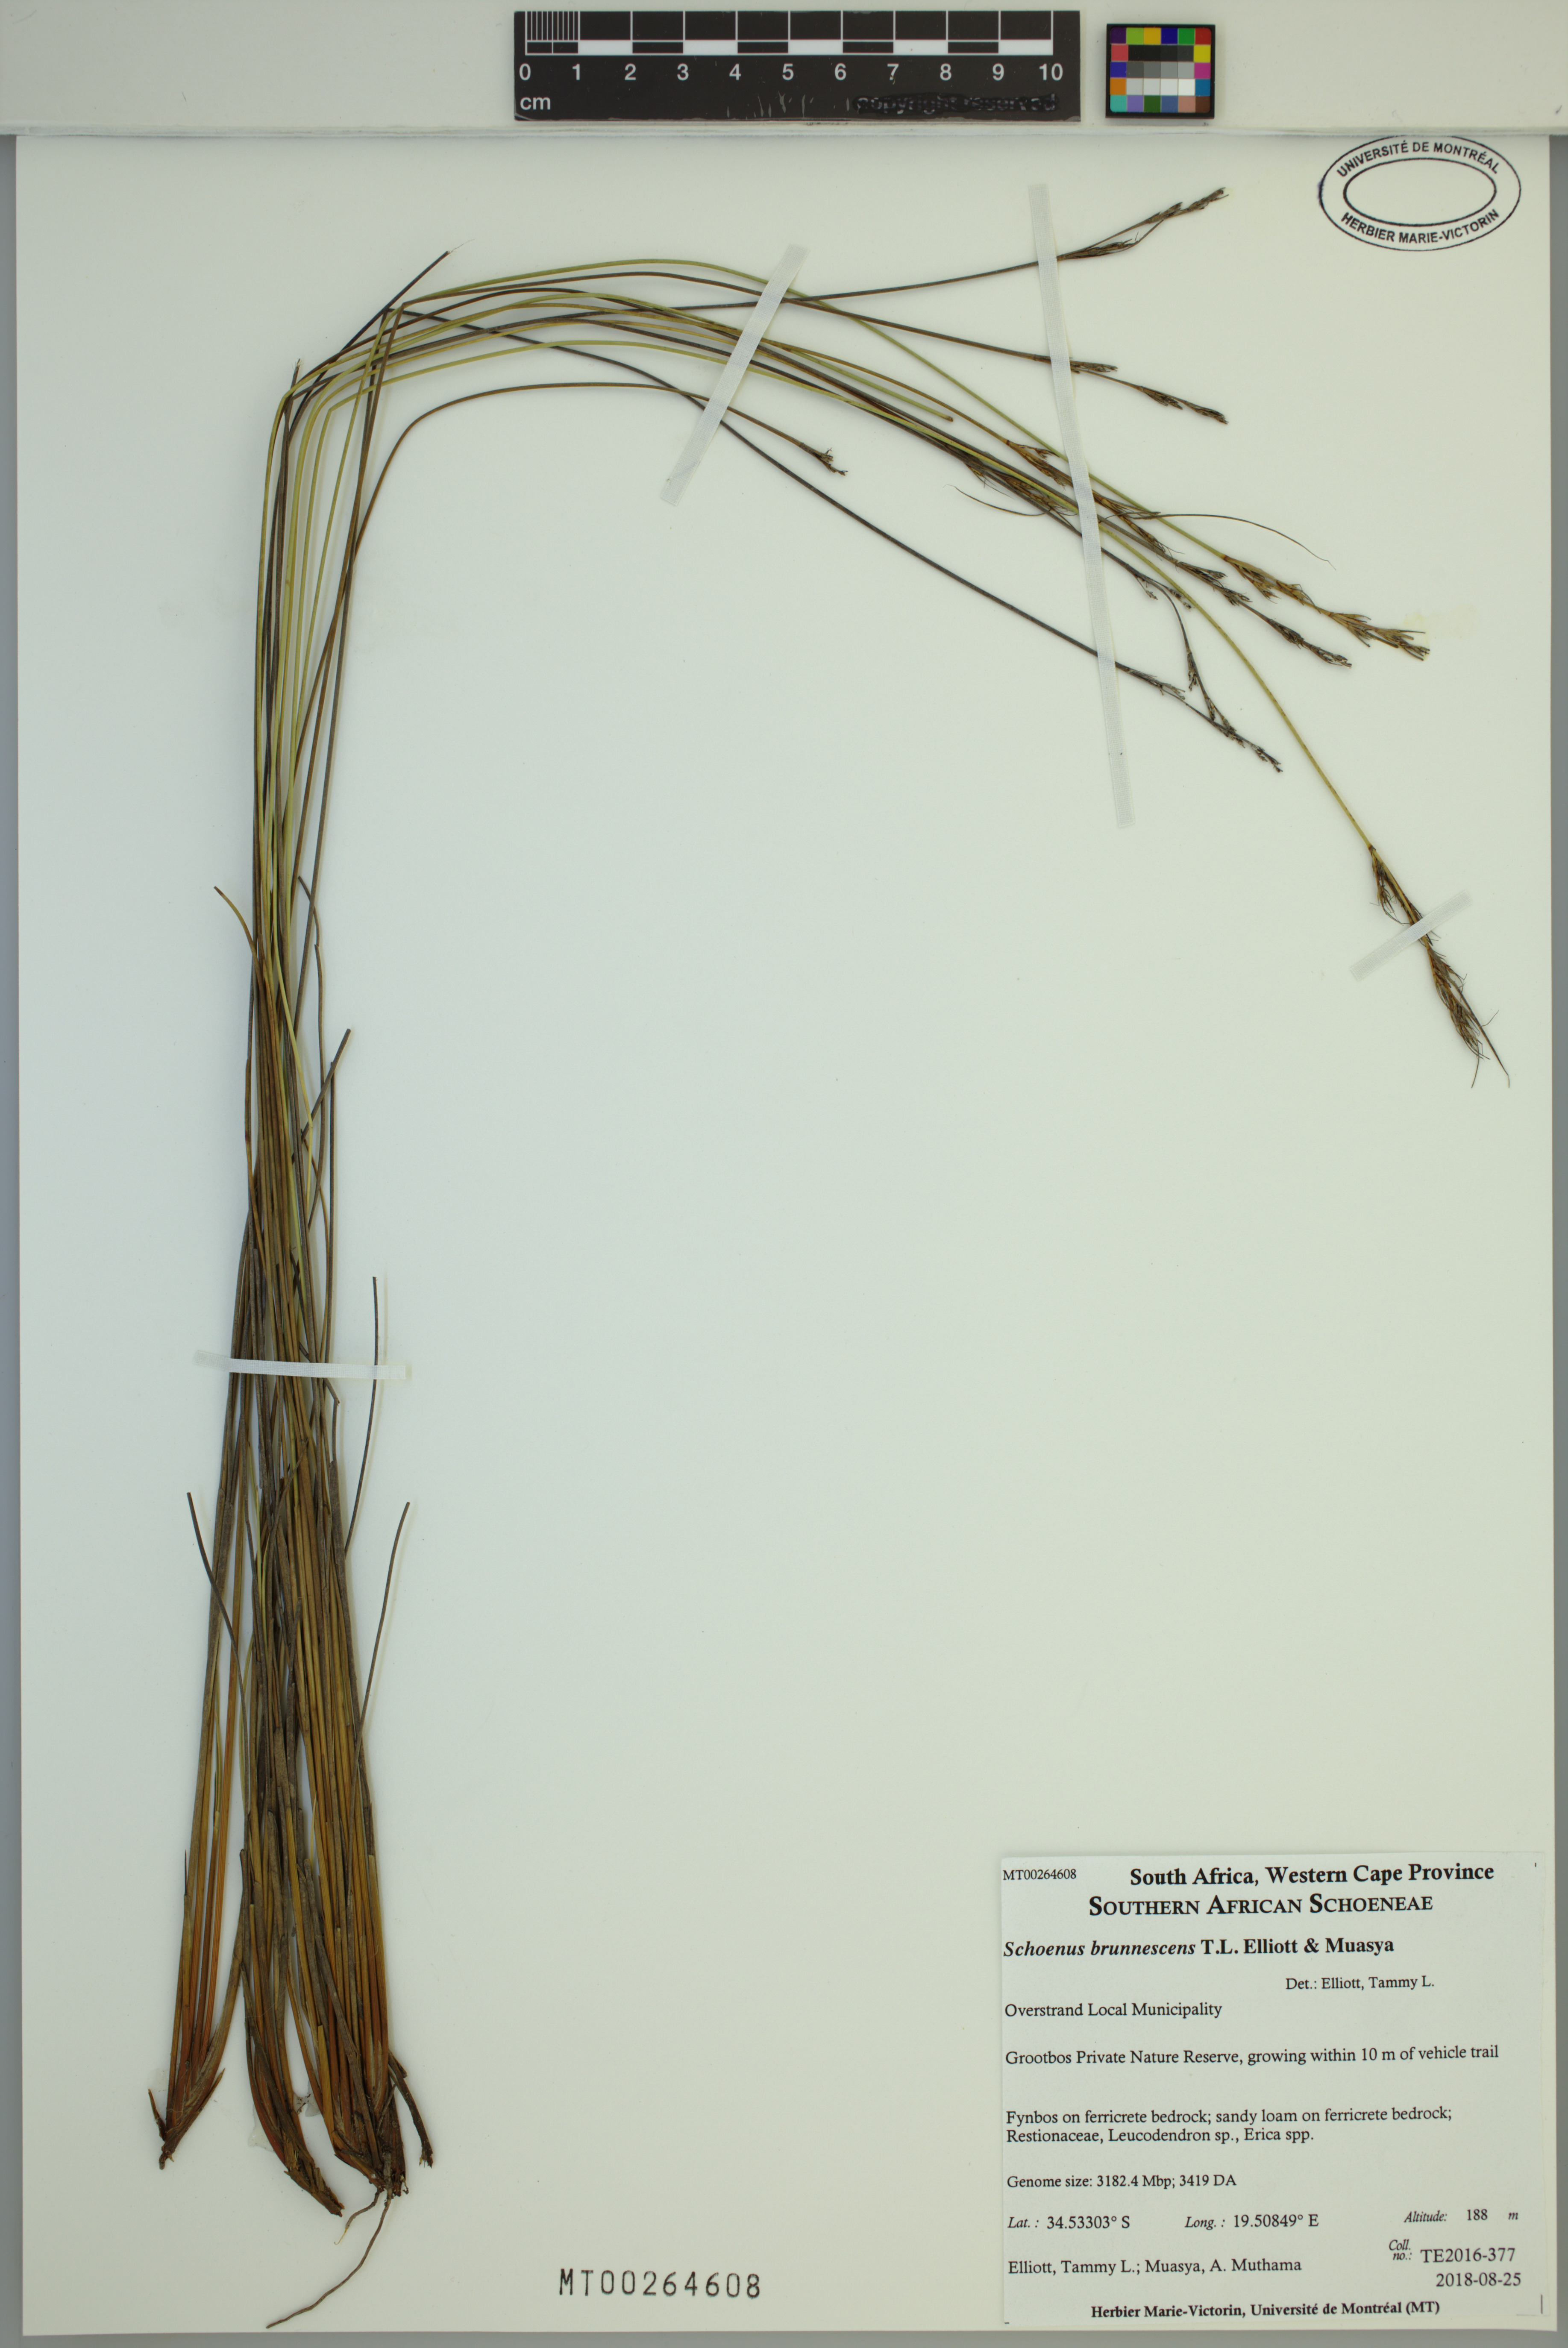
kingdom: Plantae
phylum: Tracheophyta
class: Liliopsida
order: Poales
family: Cyperaceae
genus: Schoenus
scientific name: Schoenus brunnescens
